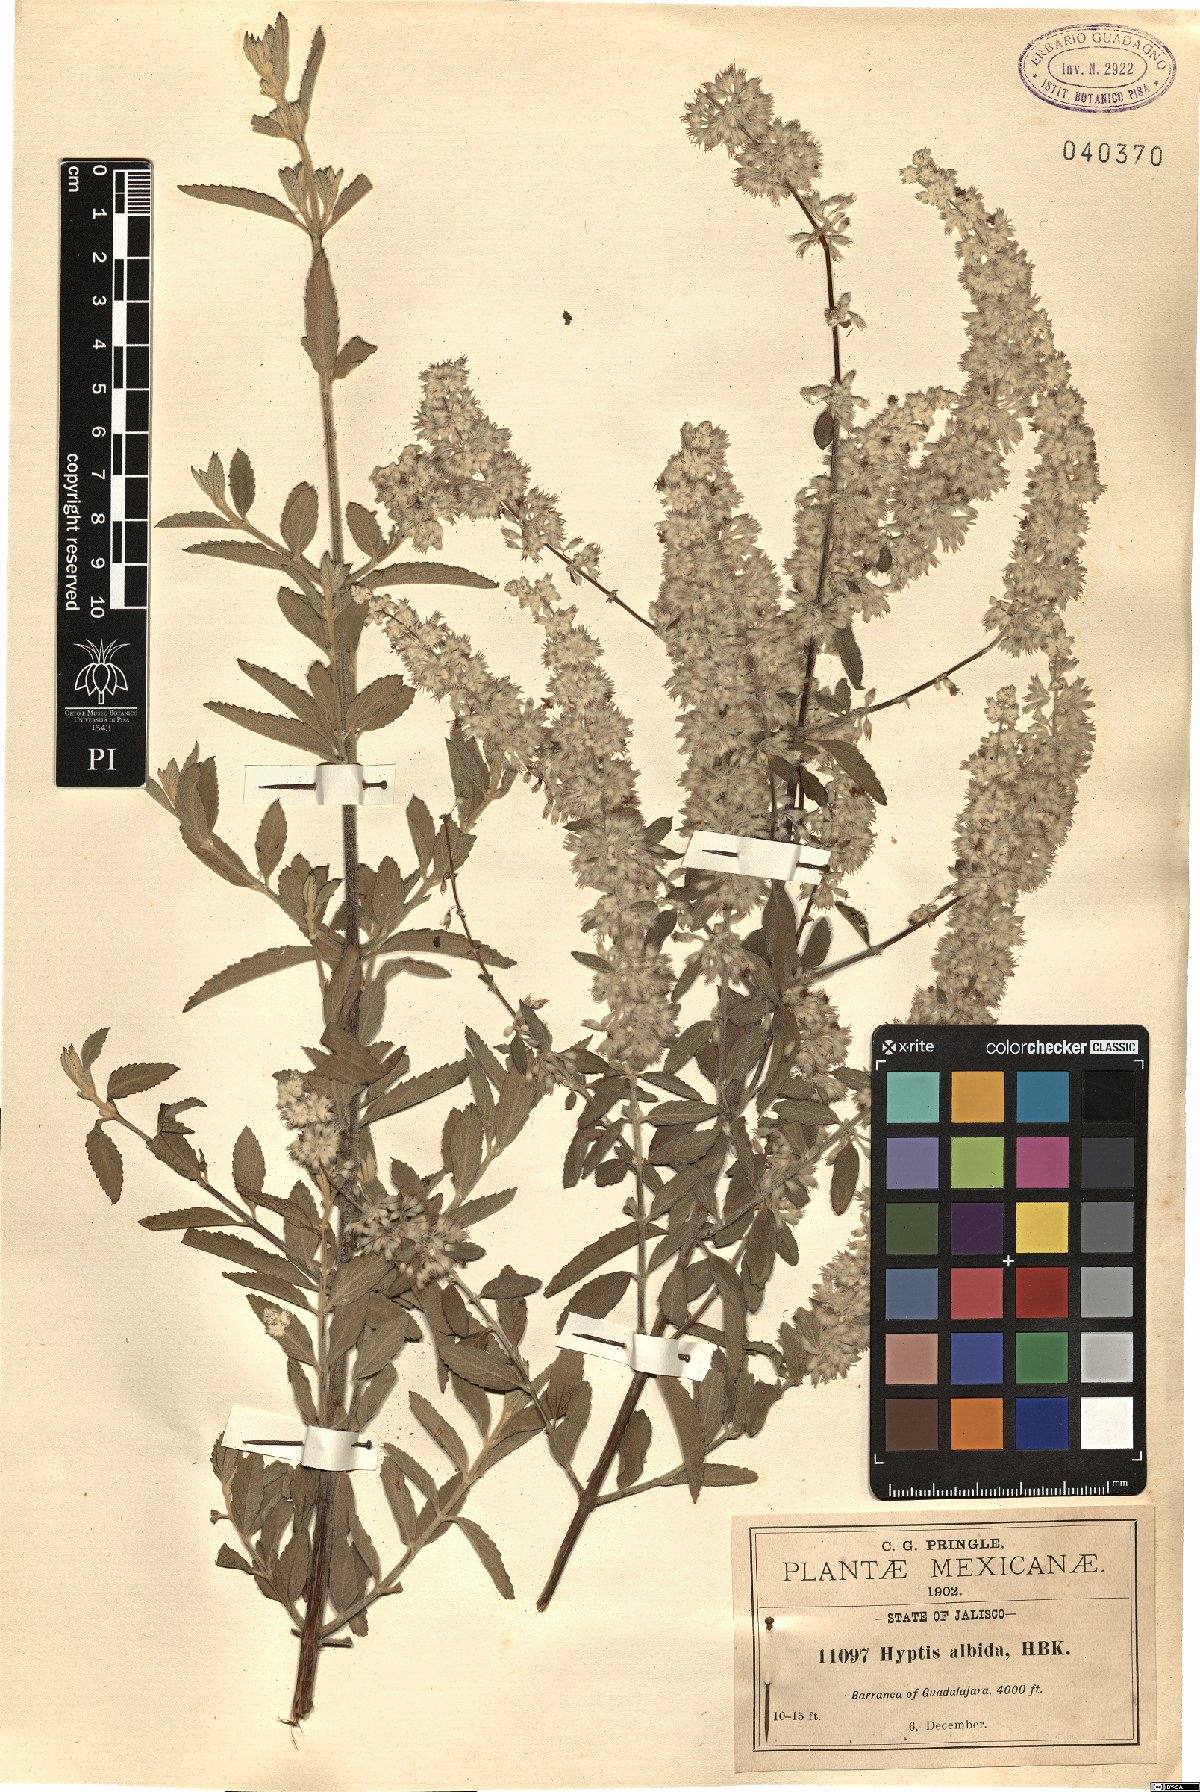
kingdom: Plantae
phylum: Tracheophyta
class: Magnoliopsida
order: Lamiales
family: Lamiaceae
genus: Condea
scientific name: Condea albida
